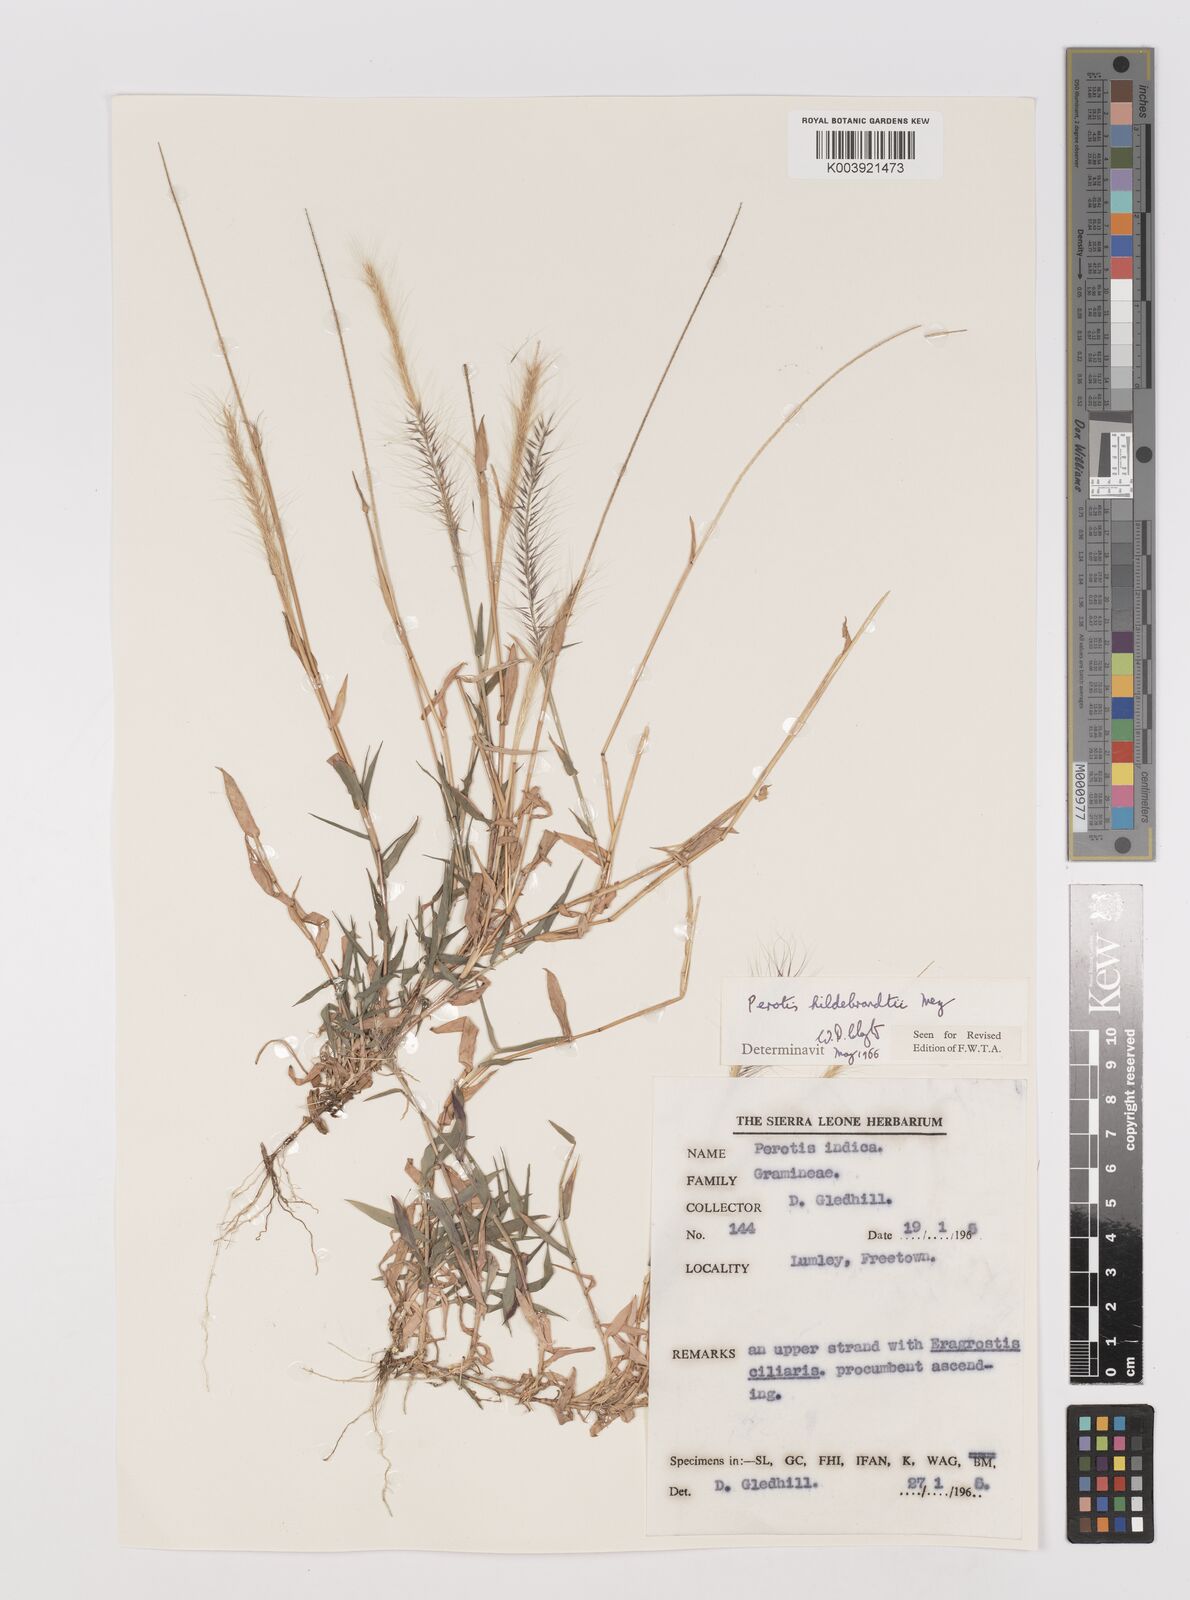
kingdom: Plantae
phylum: Tracheophyta
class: Liliopsida
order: Poales
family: Poaceae
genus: Perotis
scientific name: Perotis hildebrandtii
